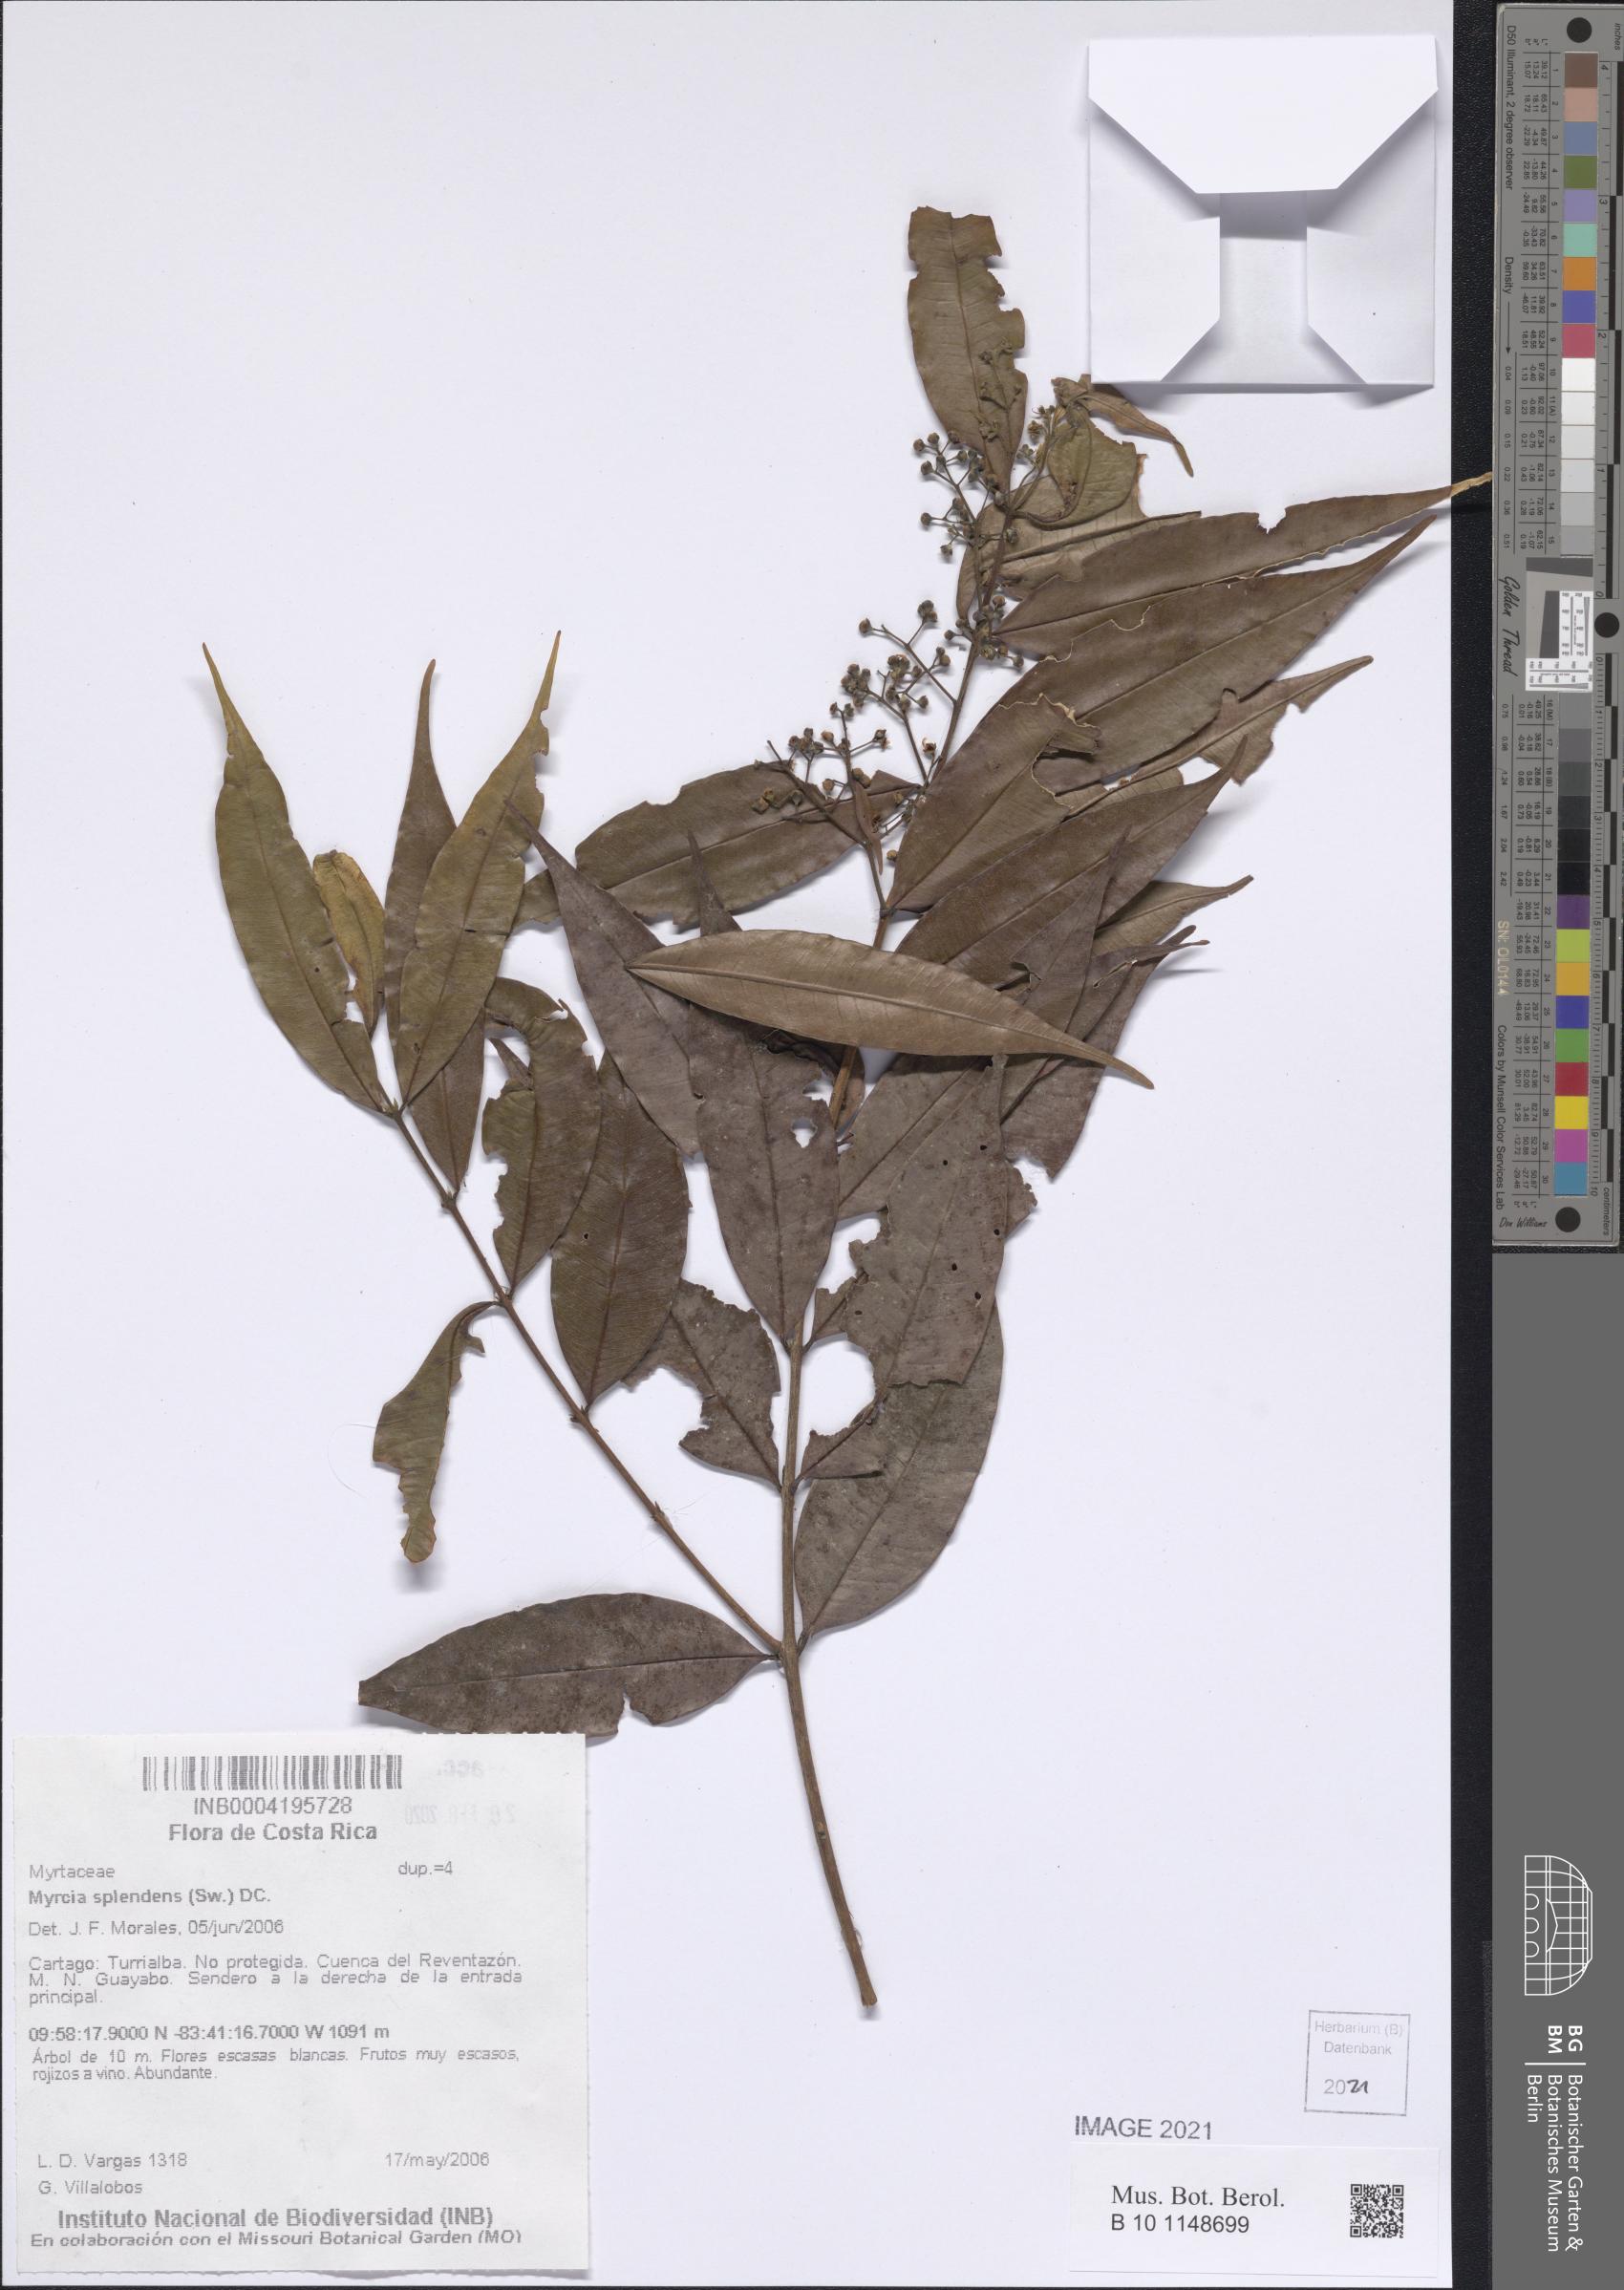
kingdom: Plantae
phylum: Tracheophyta
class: Magnoliopsida
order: Myrtales
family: Myrtaceae
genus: Myrcia
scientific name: Myrcia splendens
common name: Surinam cherry
